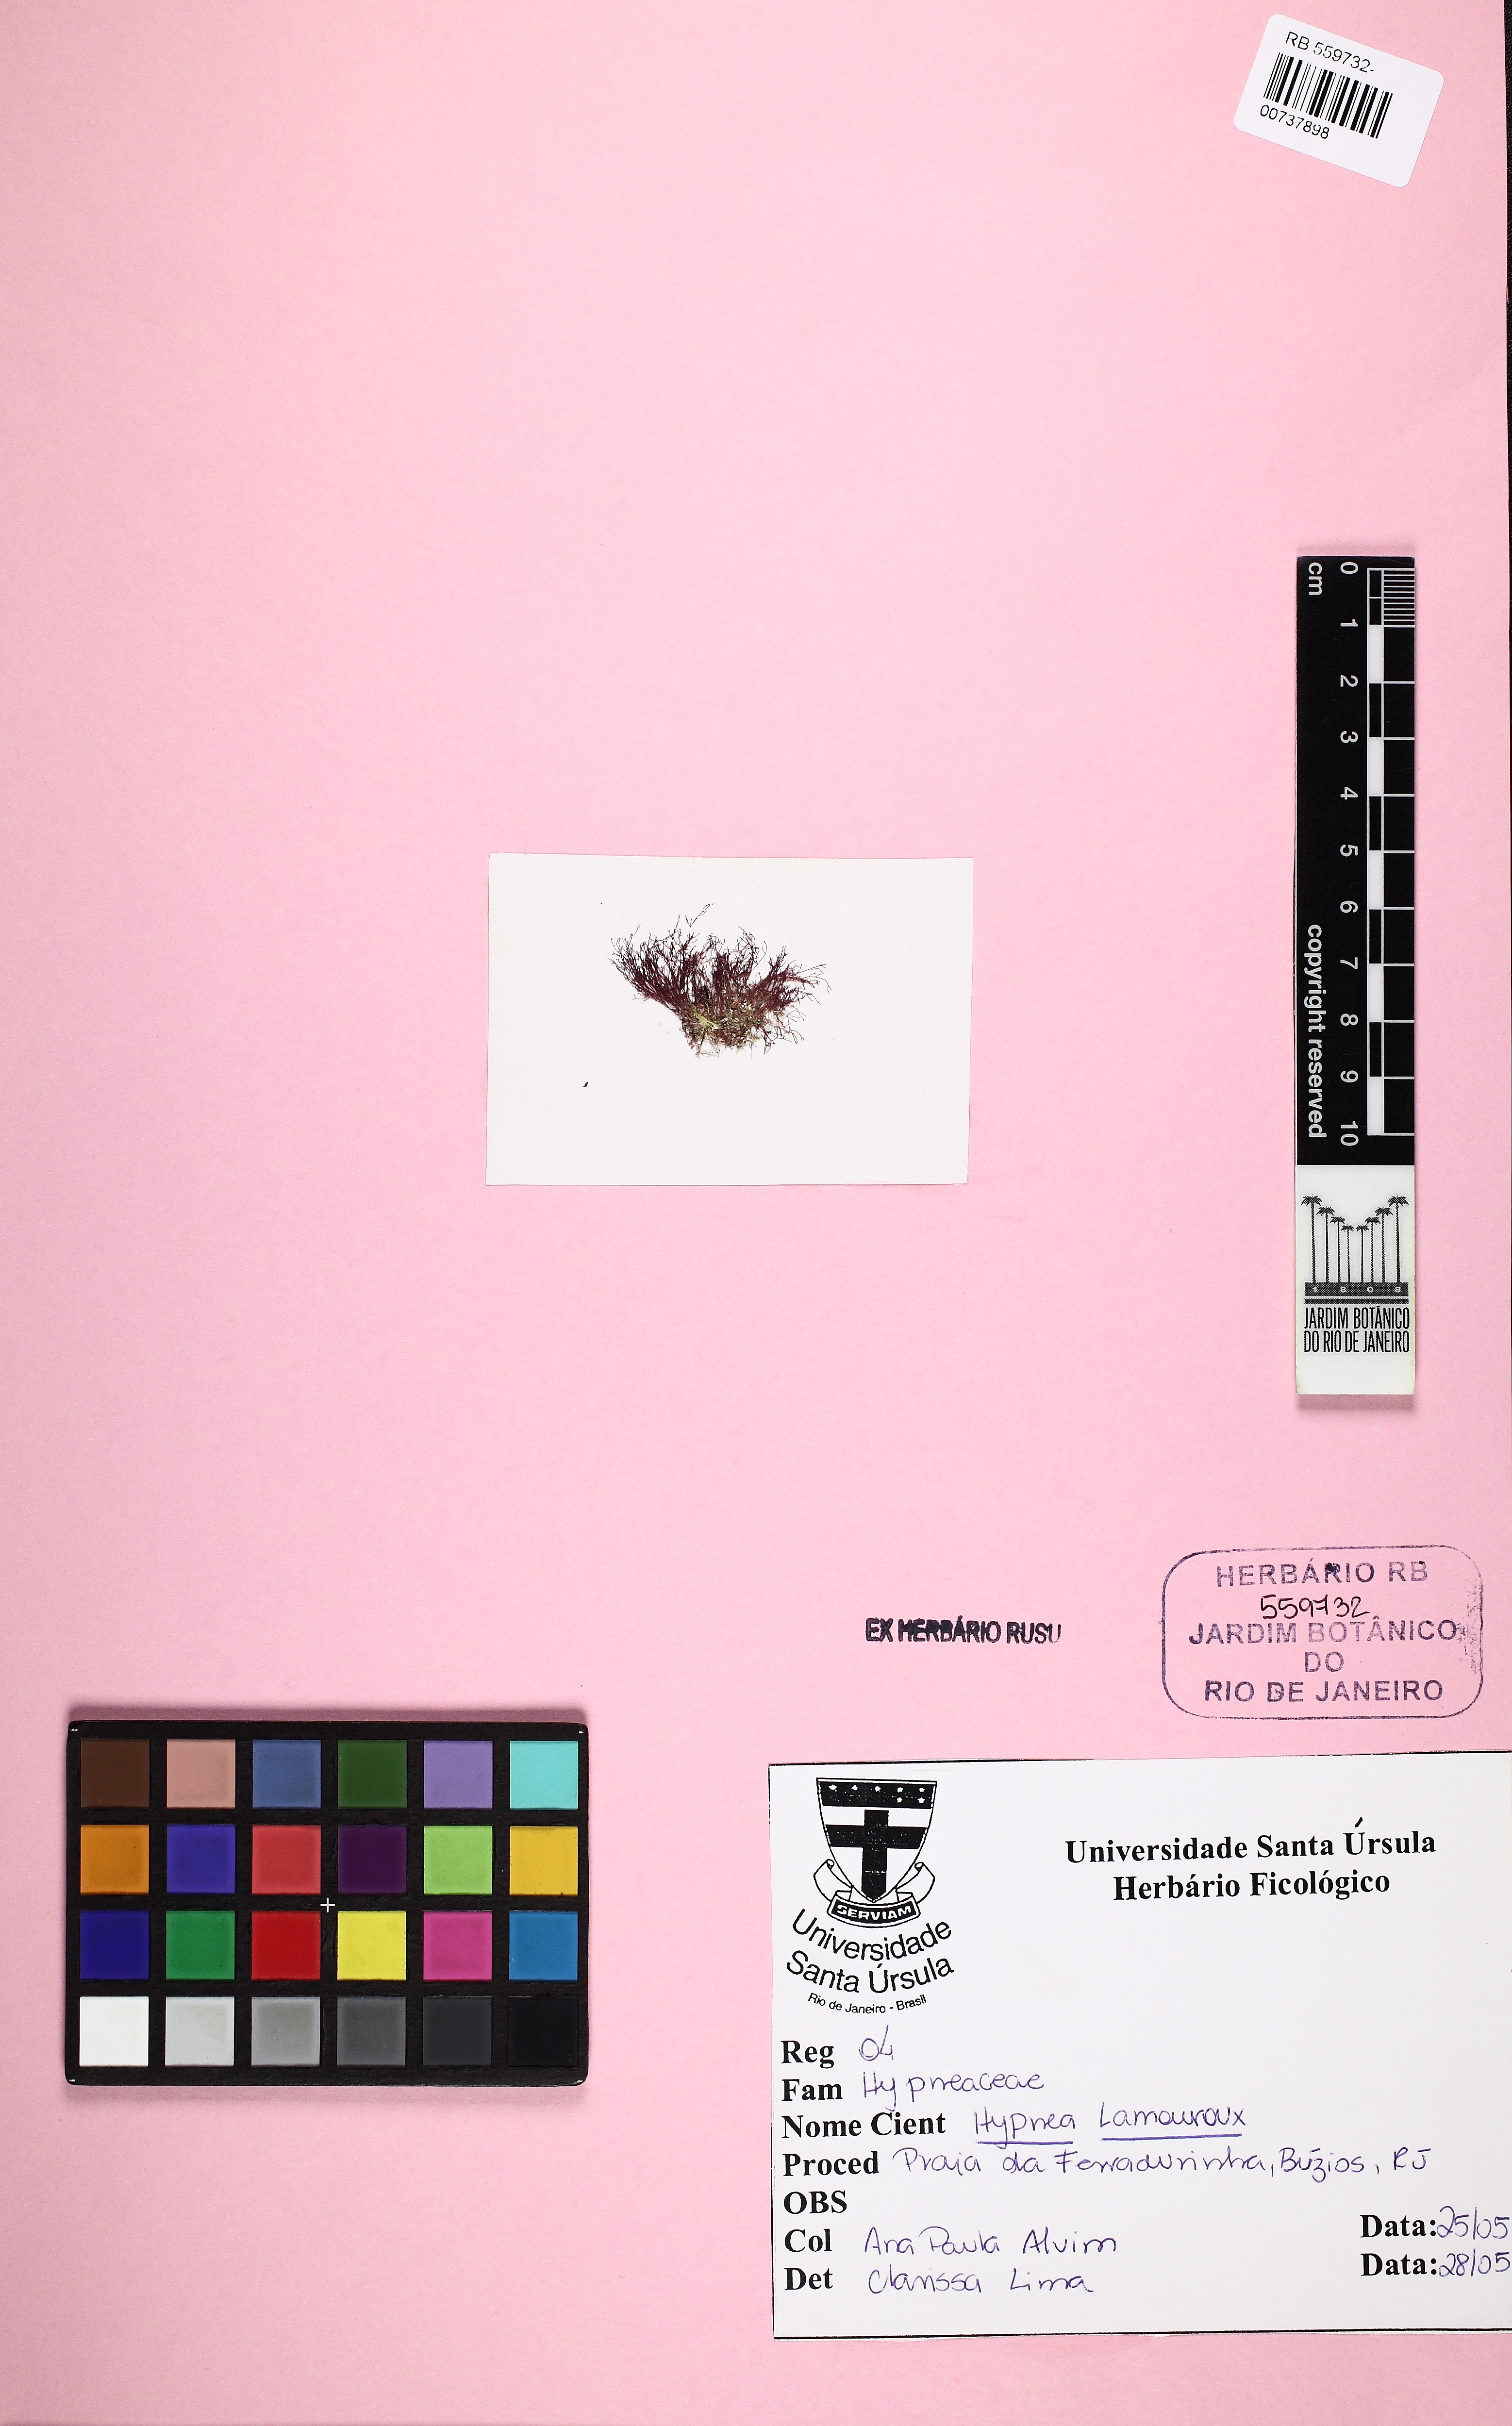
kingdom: Plantae
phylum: Rhodophyta
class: Florideophyceae
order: Gigartinales
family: Cystocloniaceae
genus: Hypnea
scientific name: Hypnea
